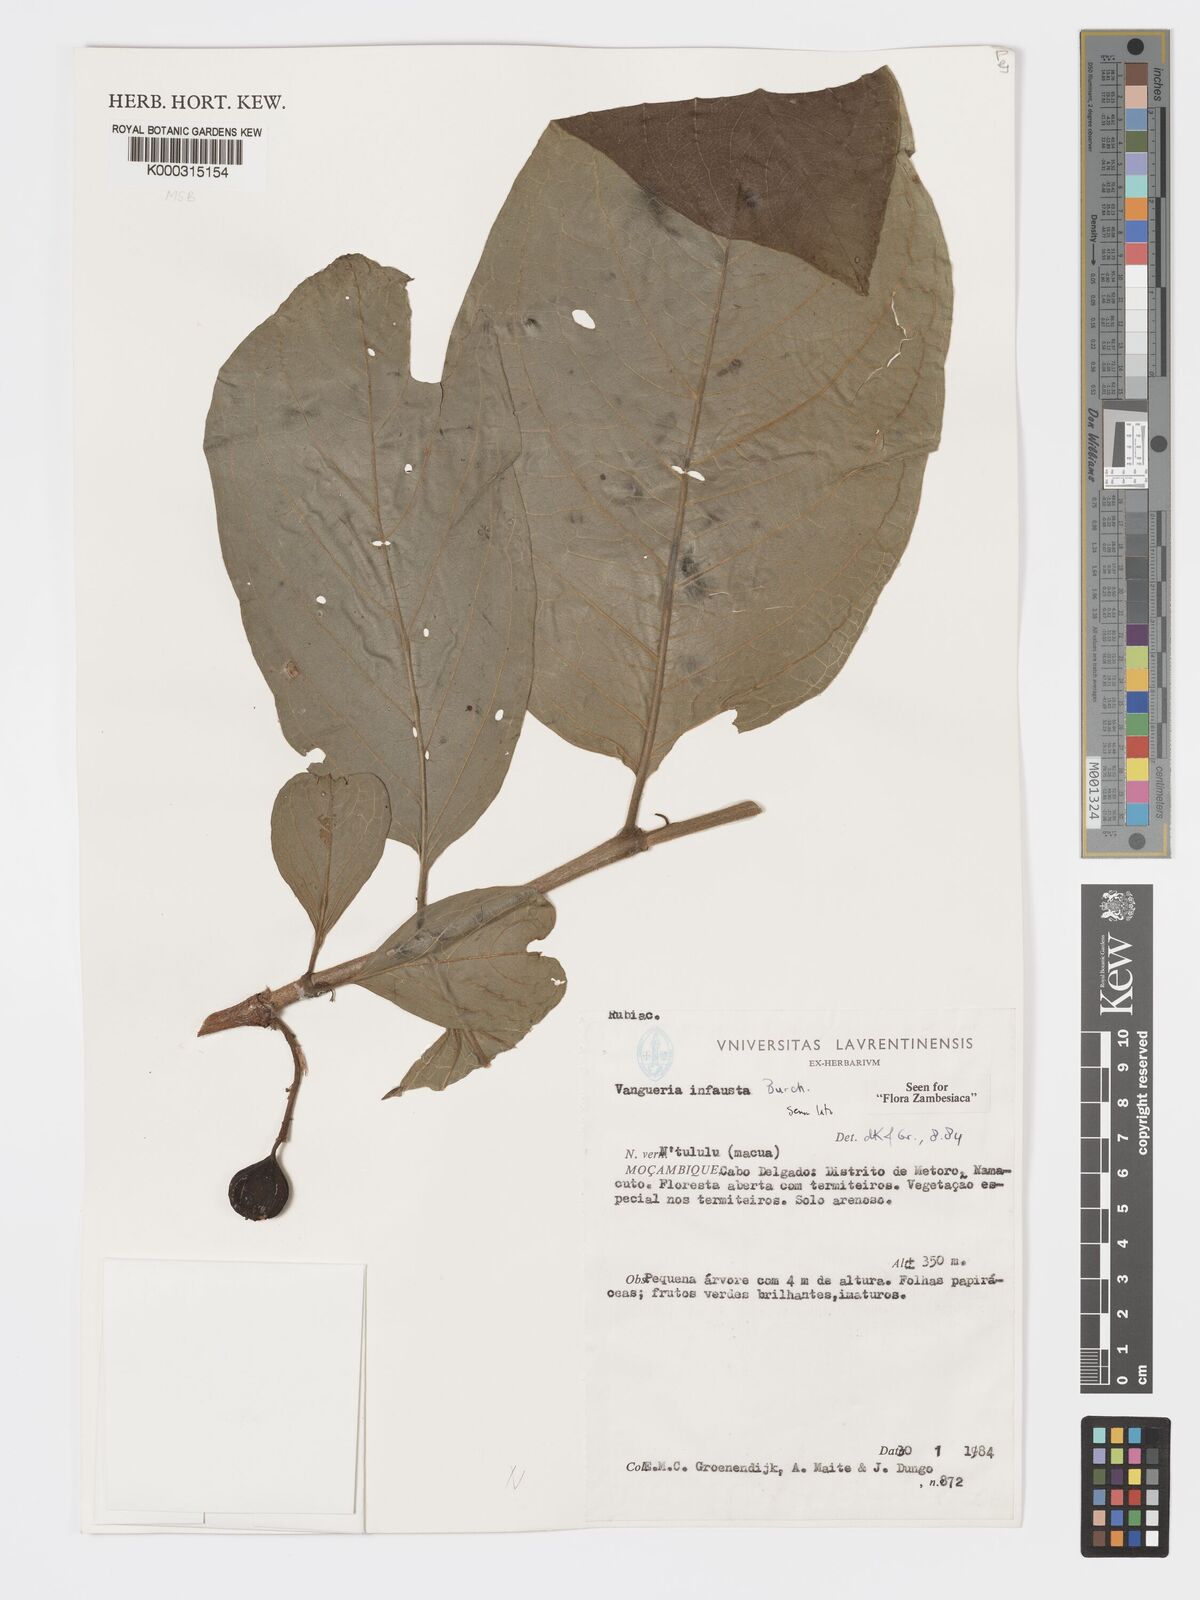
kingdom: Plantae
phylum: Tracheophyta
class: Magnoliopsida
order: Gentianales
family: Rubiaceae
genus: Vangueria
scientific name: Vangueria infausta
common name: Medlar
